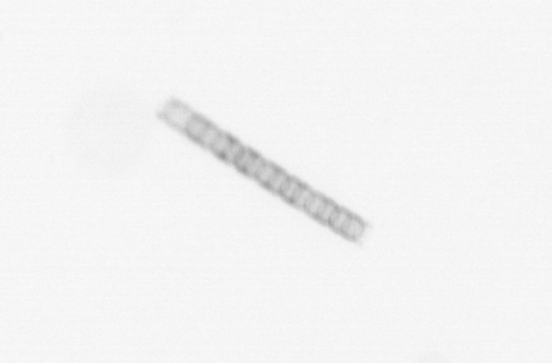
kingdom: Chromista
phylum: Ochrophyta
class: Bacillariophyceae
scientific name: Bacillariophyceae
